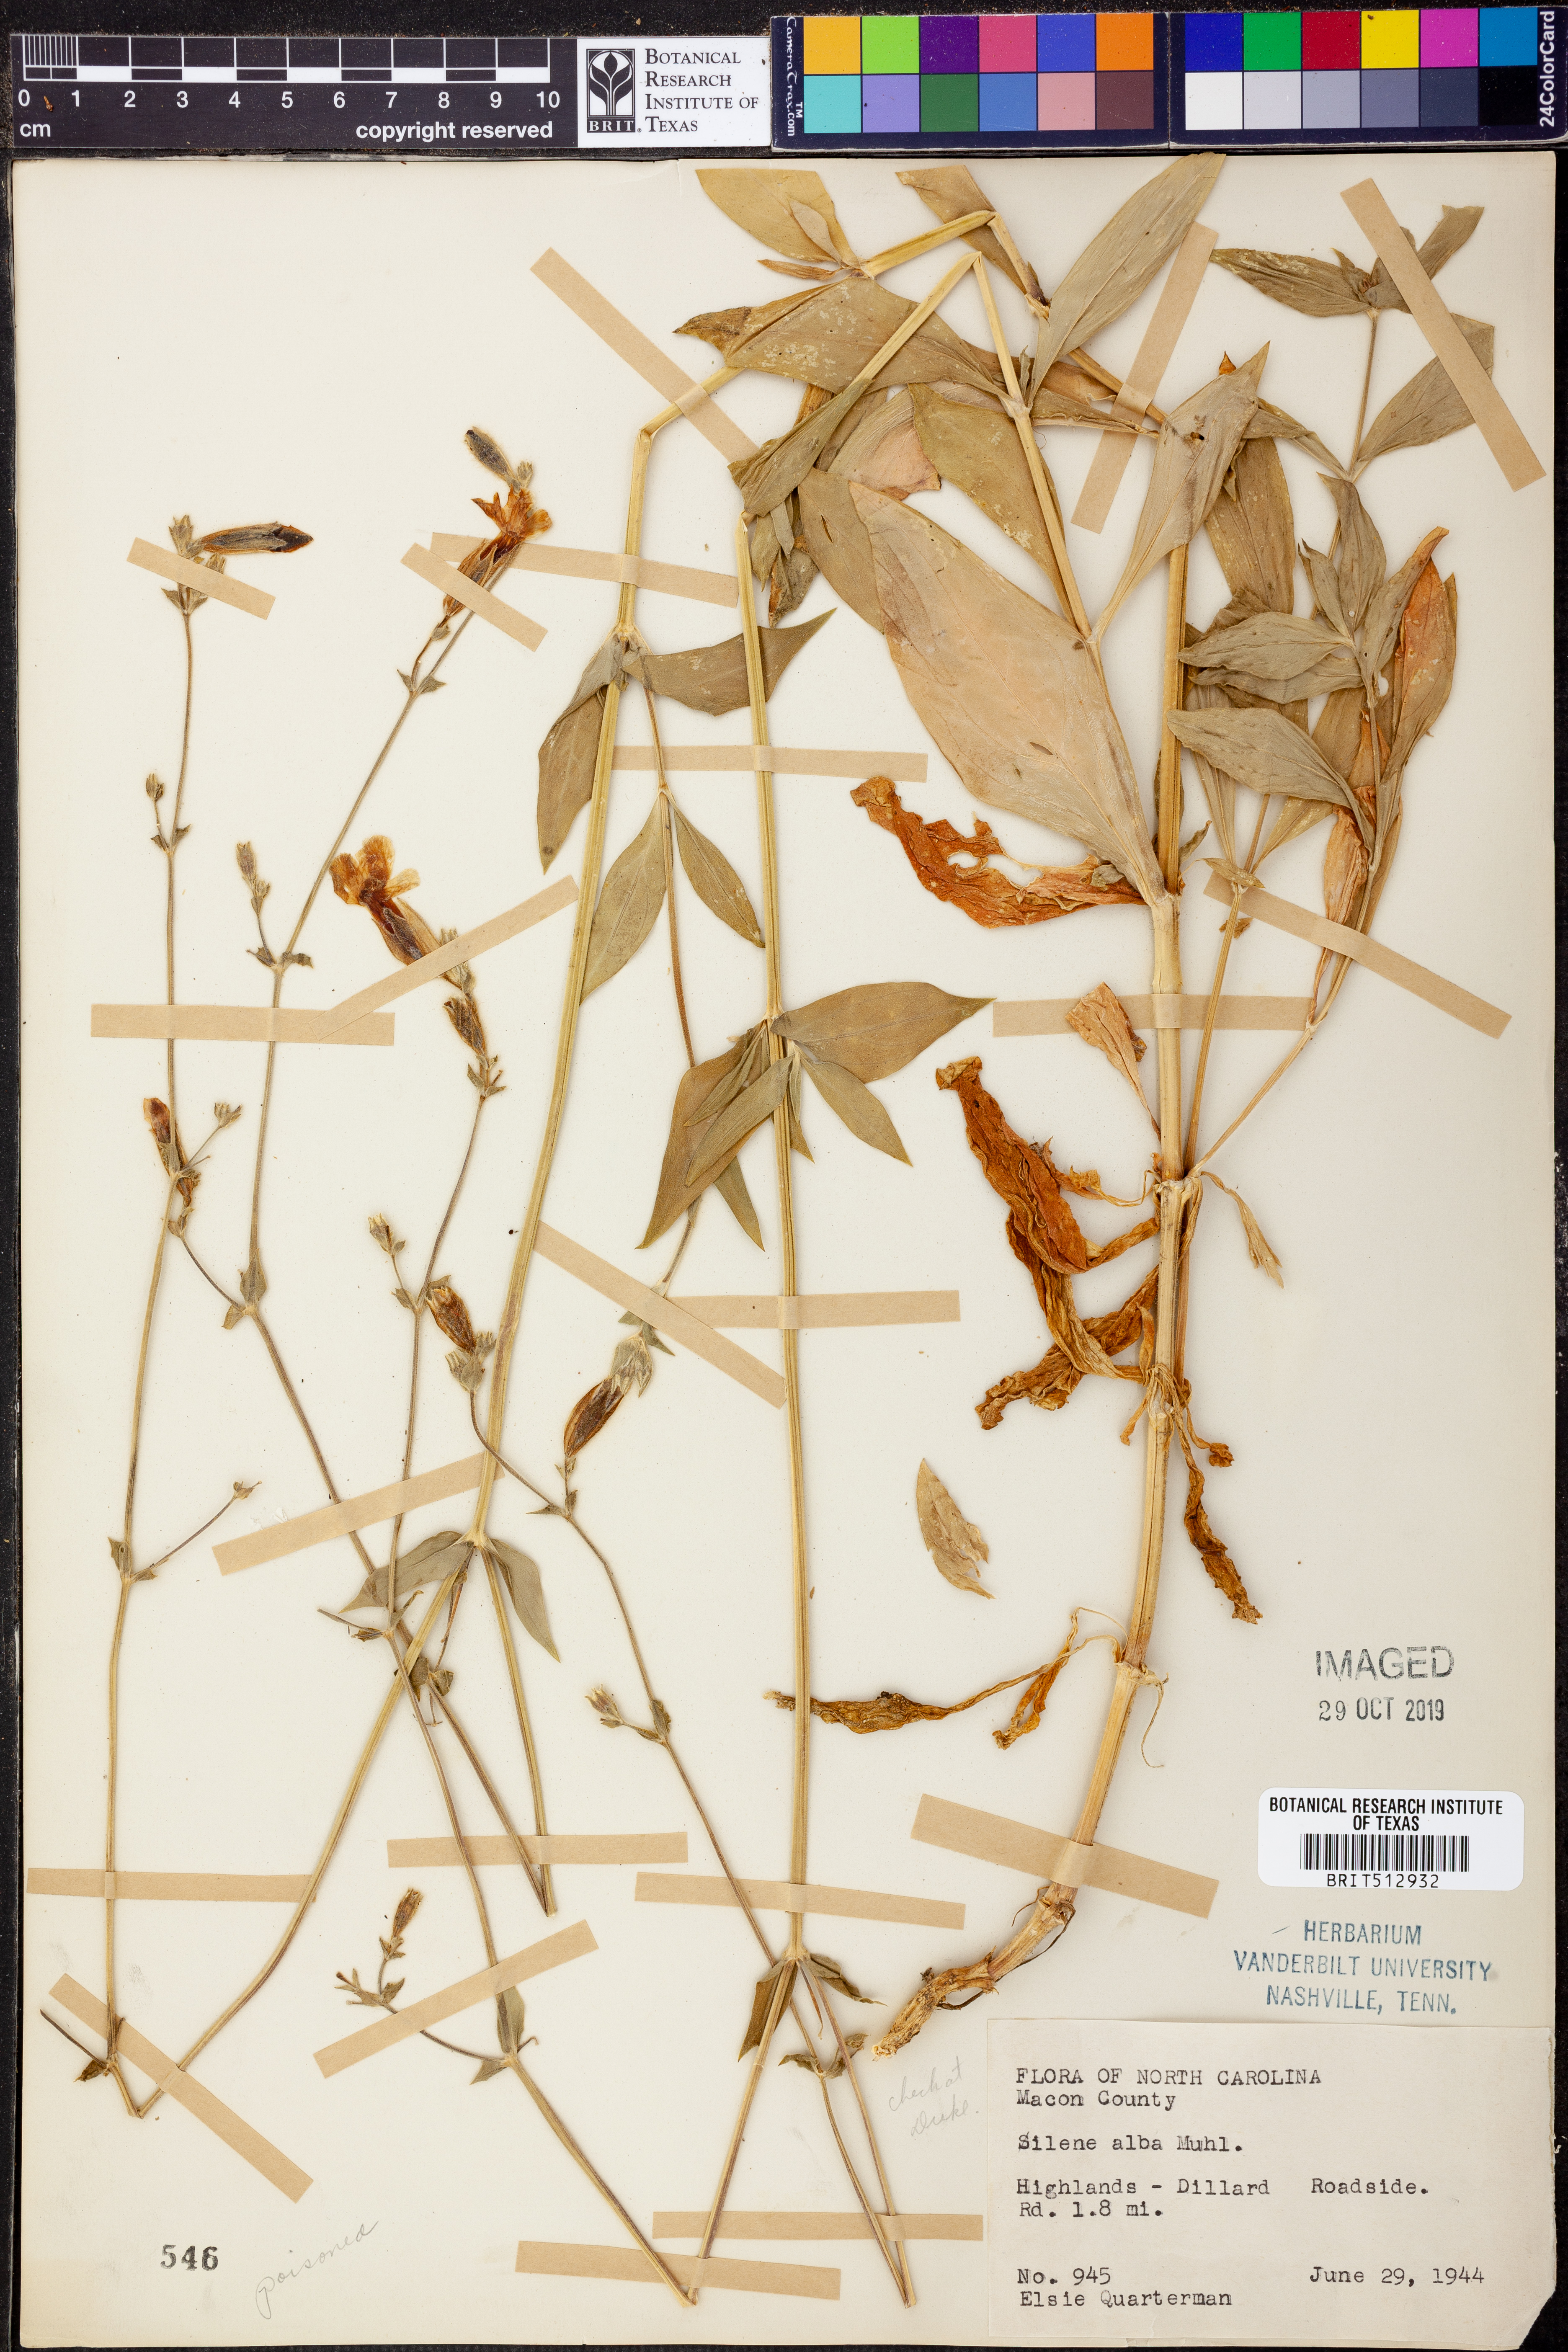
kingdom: Plantae
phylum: Tracheophyta
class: Magnoliopsida
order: Caryophyllales
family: Caryophyllaceae
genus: Silene
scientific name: Silene latifolia
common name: White campion
